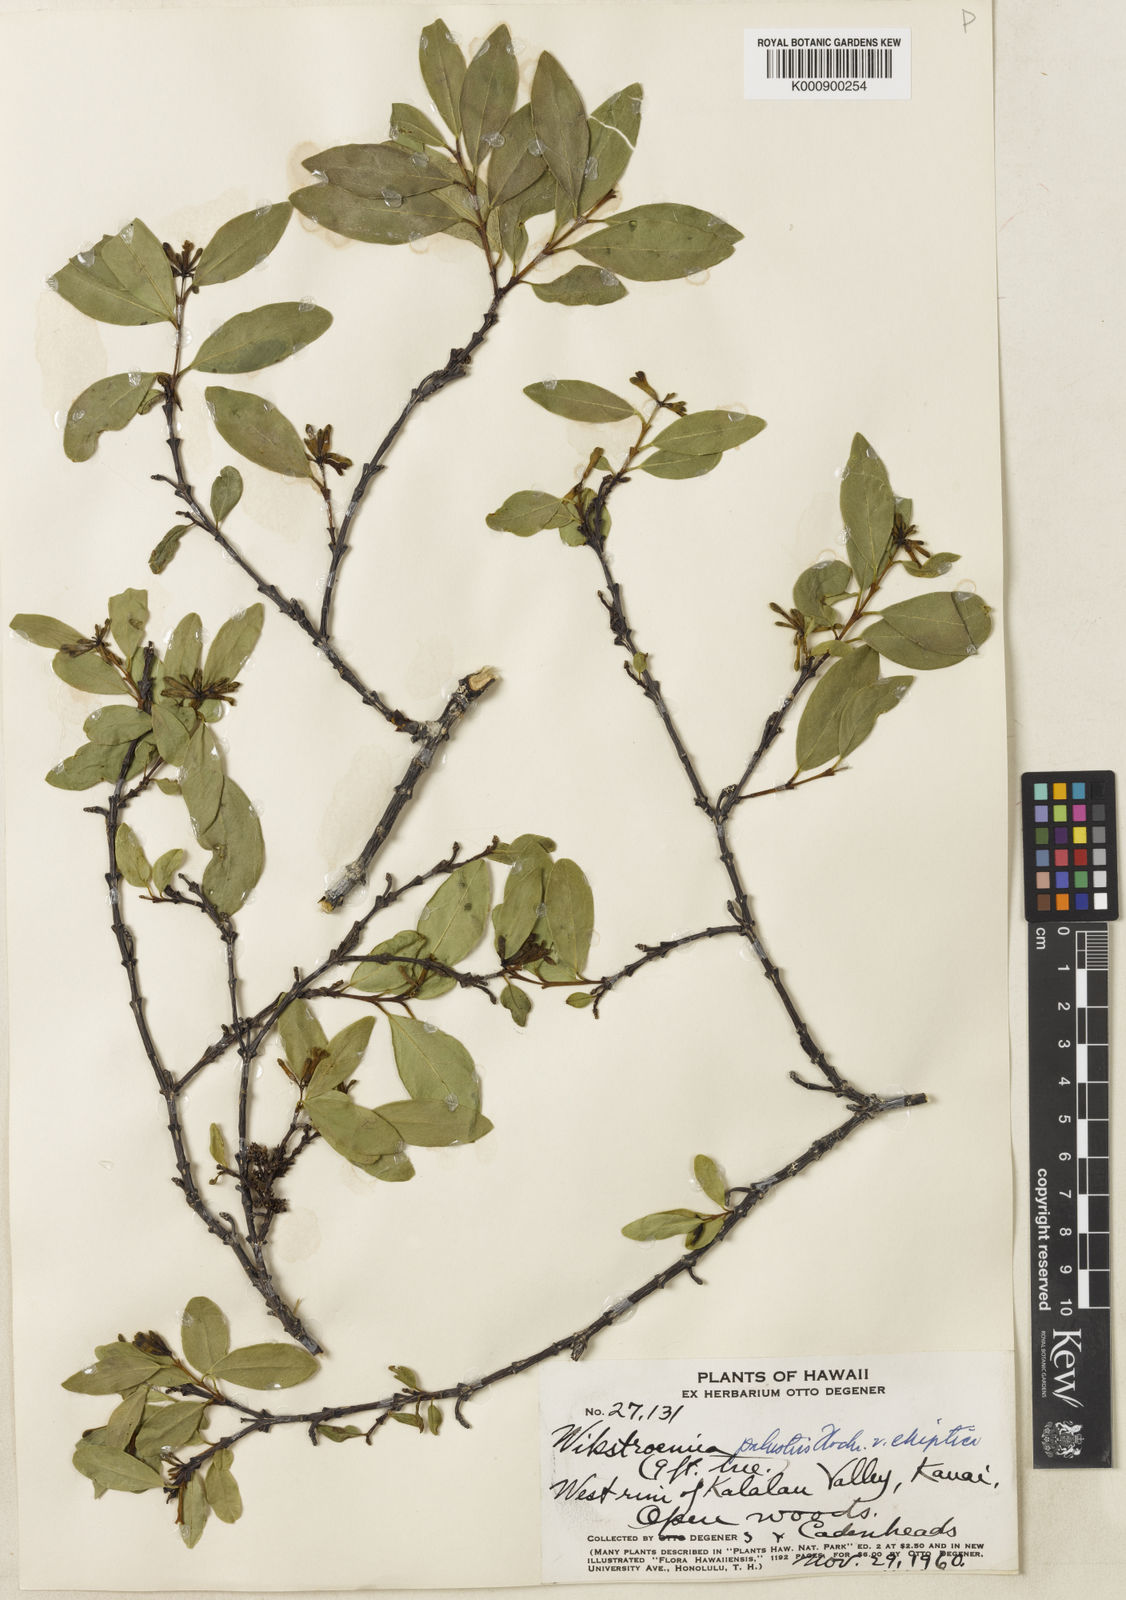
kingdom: Plantae
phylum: Tracheophyta
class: Magnoliopsida
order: Malvales
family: Thymelaeaceae
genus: Wikstroemia
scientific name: Wikstroemia oahuensis
